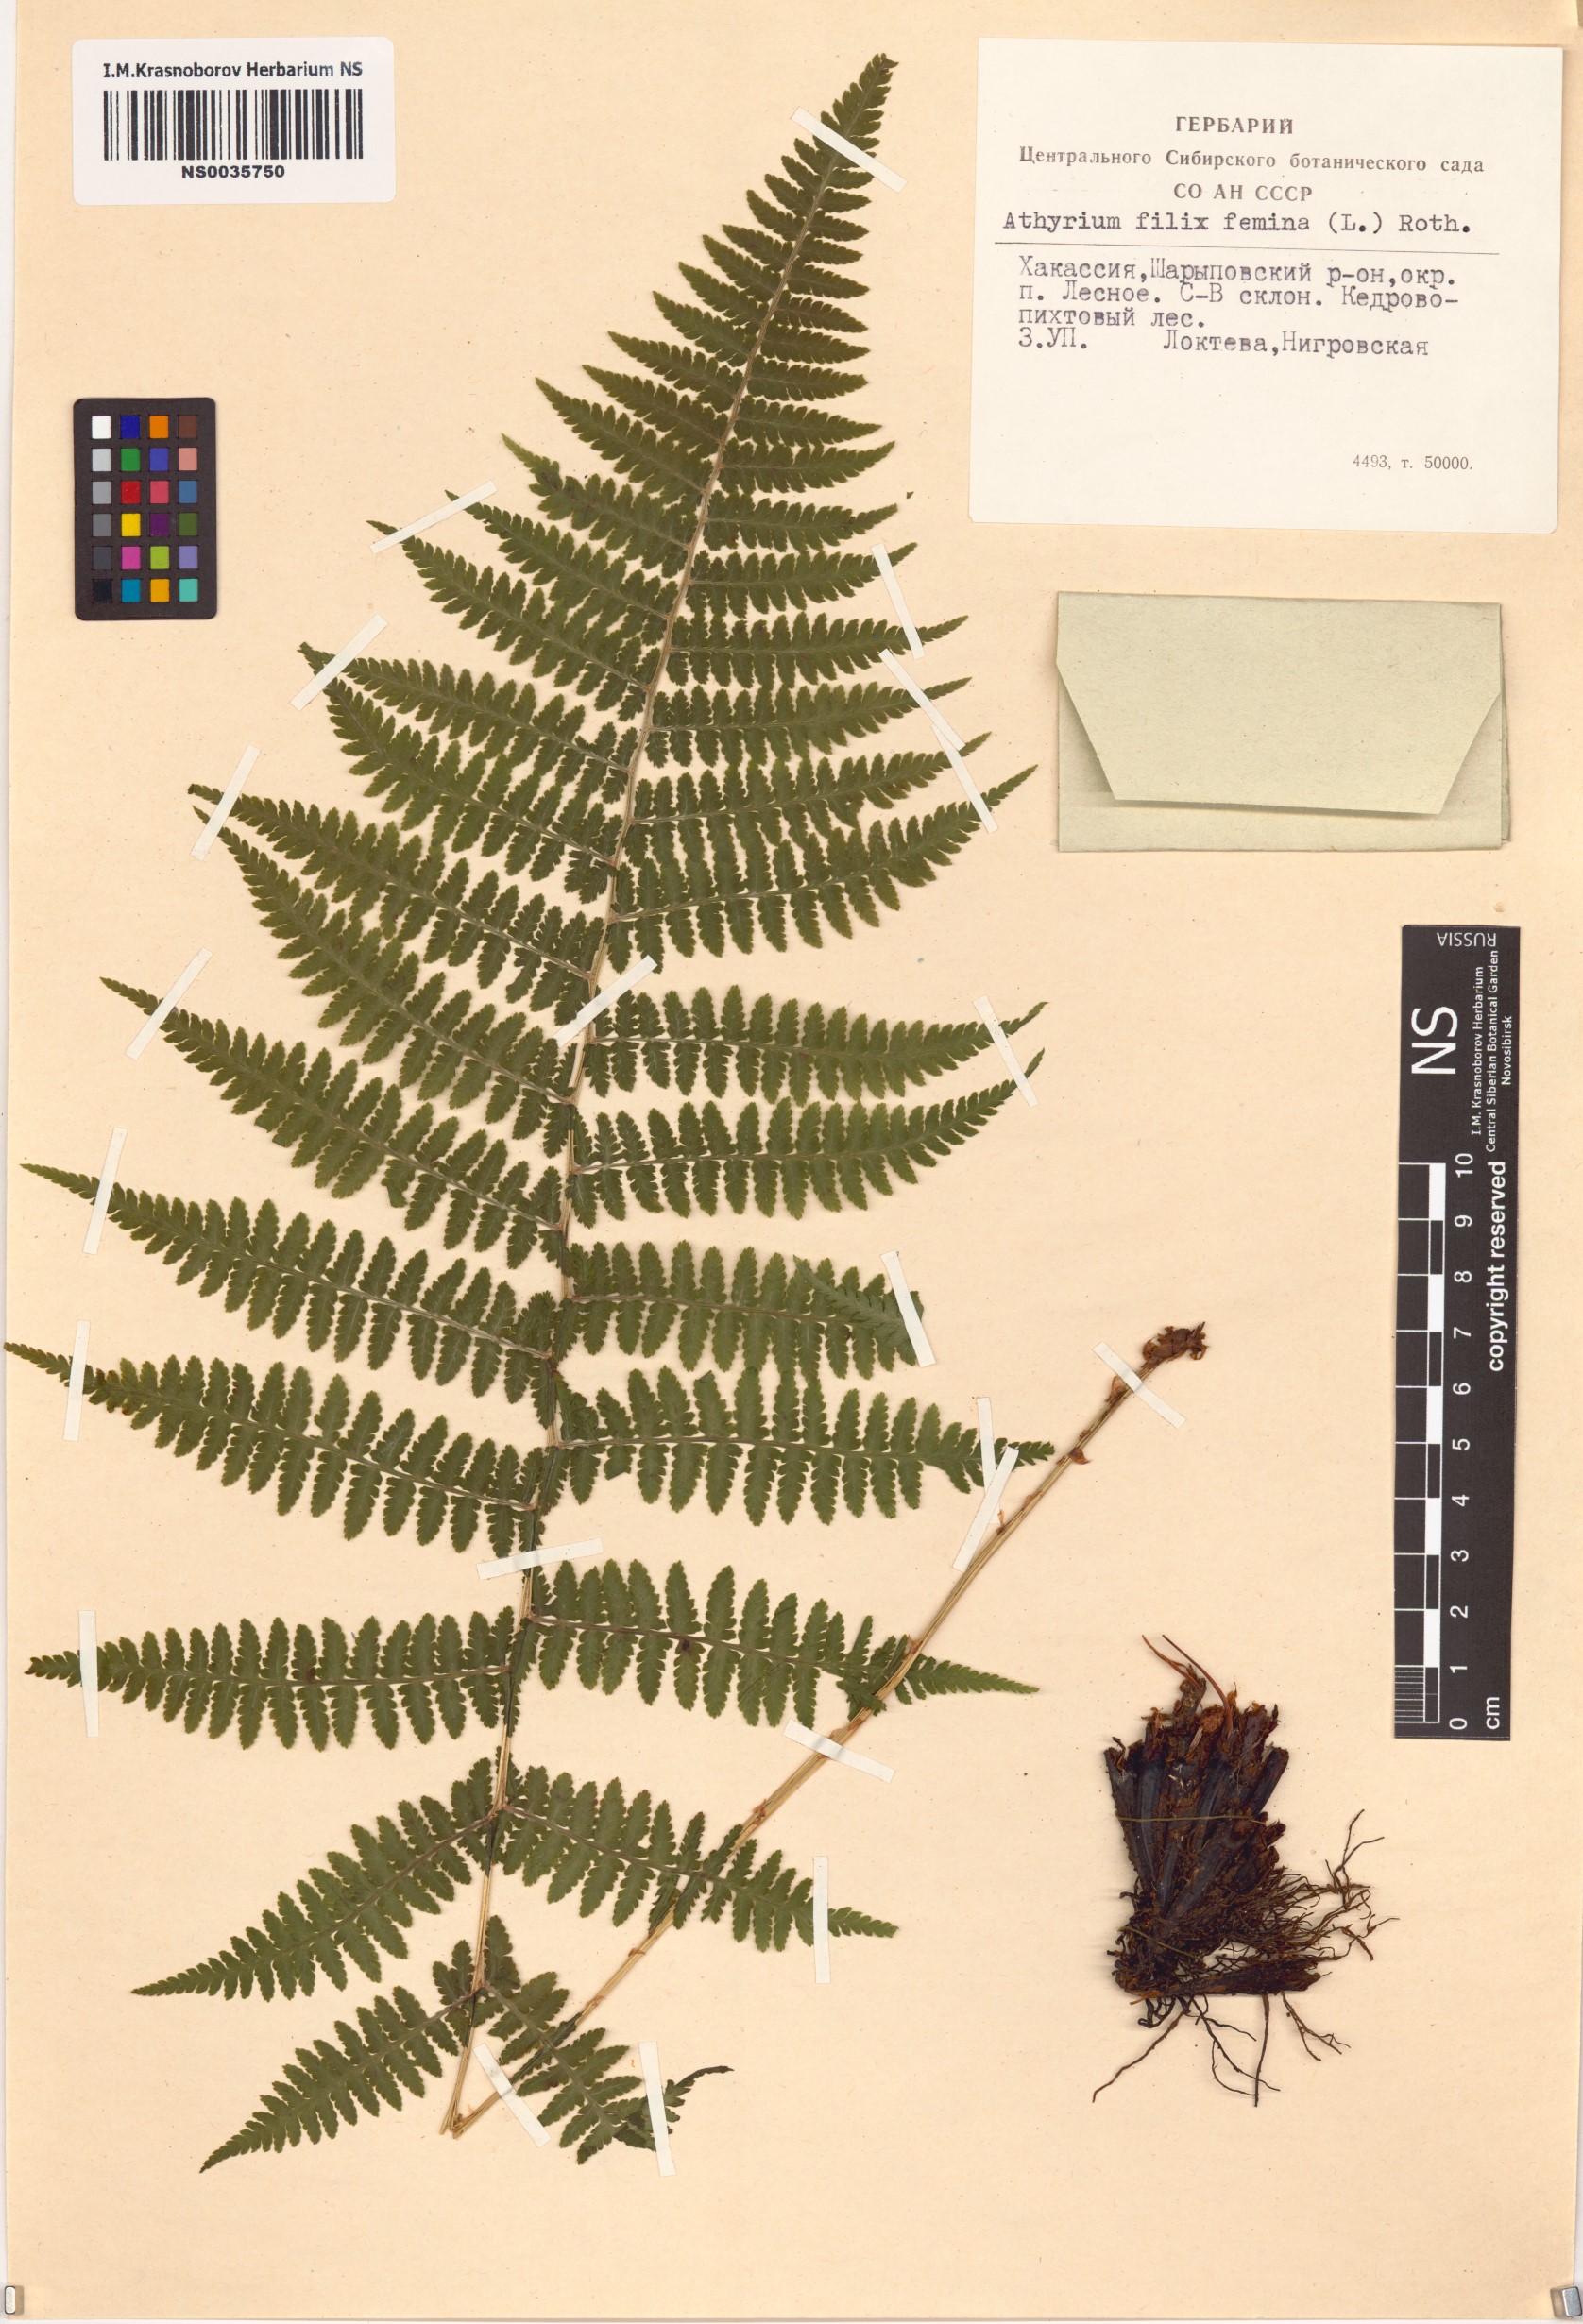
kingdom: Plantae
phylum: Tracheophyta
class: Polypodiopsida
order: Polypodiales
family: Athyriaceae
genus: Athyrium
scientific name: Athyrium filix-femina
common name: Lady fern
